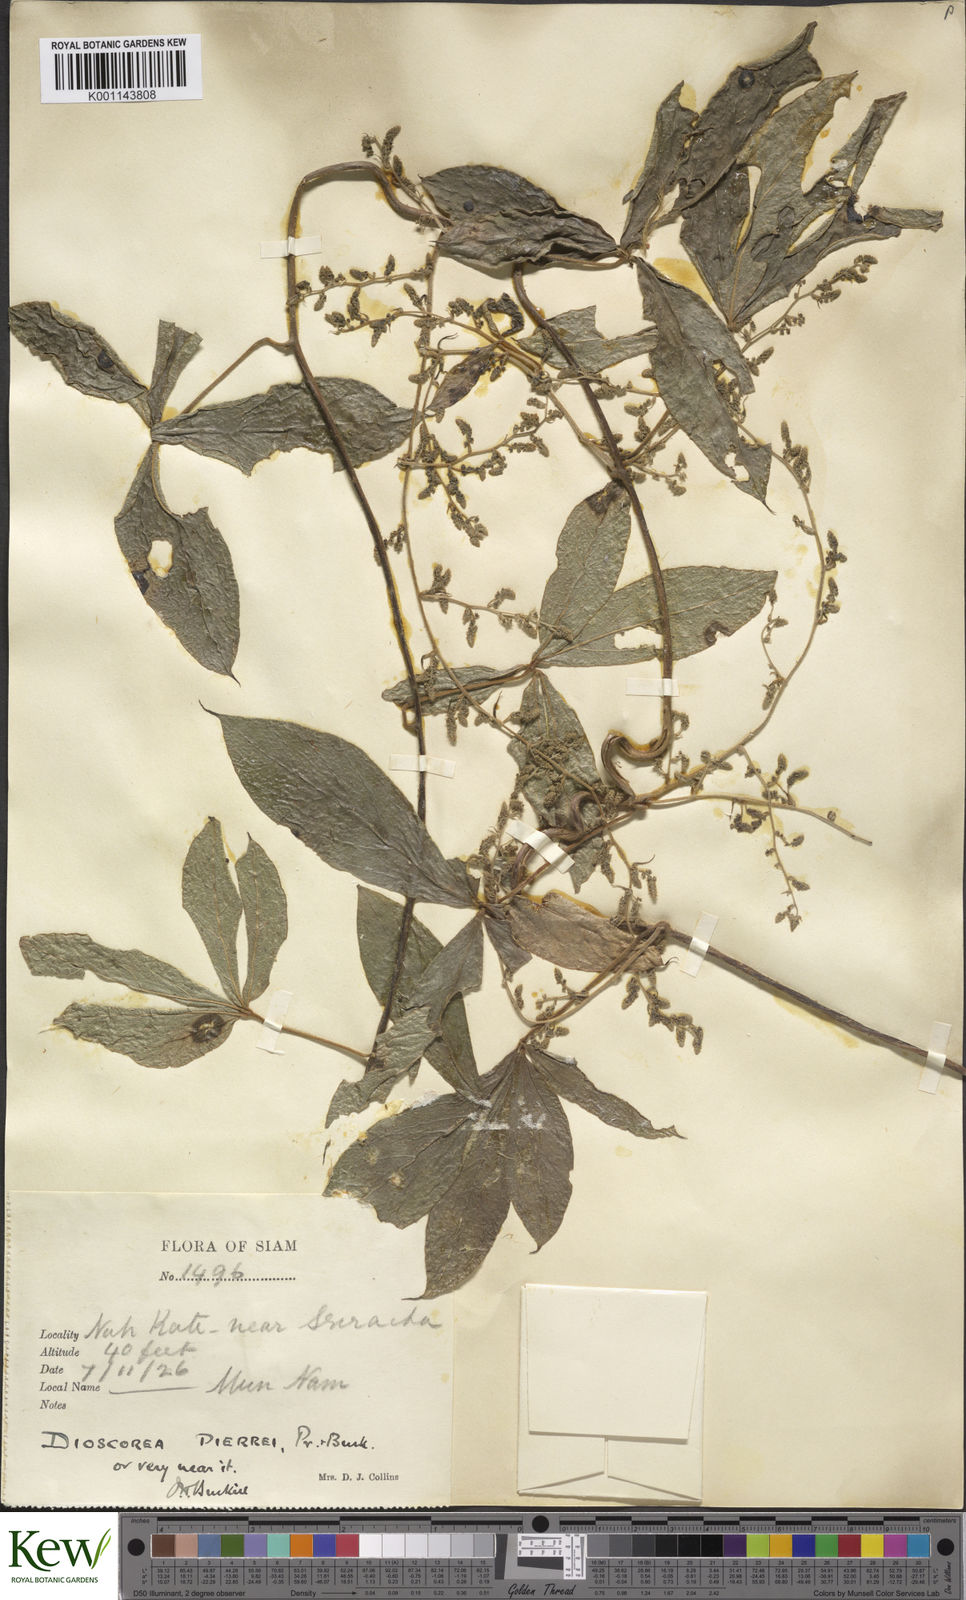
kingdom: Plantae
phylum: Tracheophyta
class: Liliopsida
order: Dioscoreales
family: Dioscoreaceae
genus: Dioscorea
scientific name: Dioscorea pierrei
